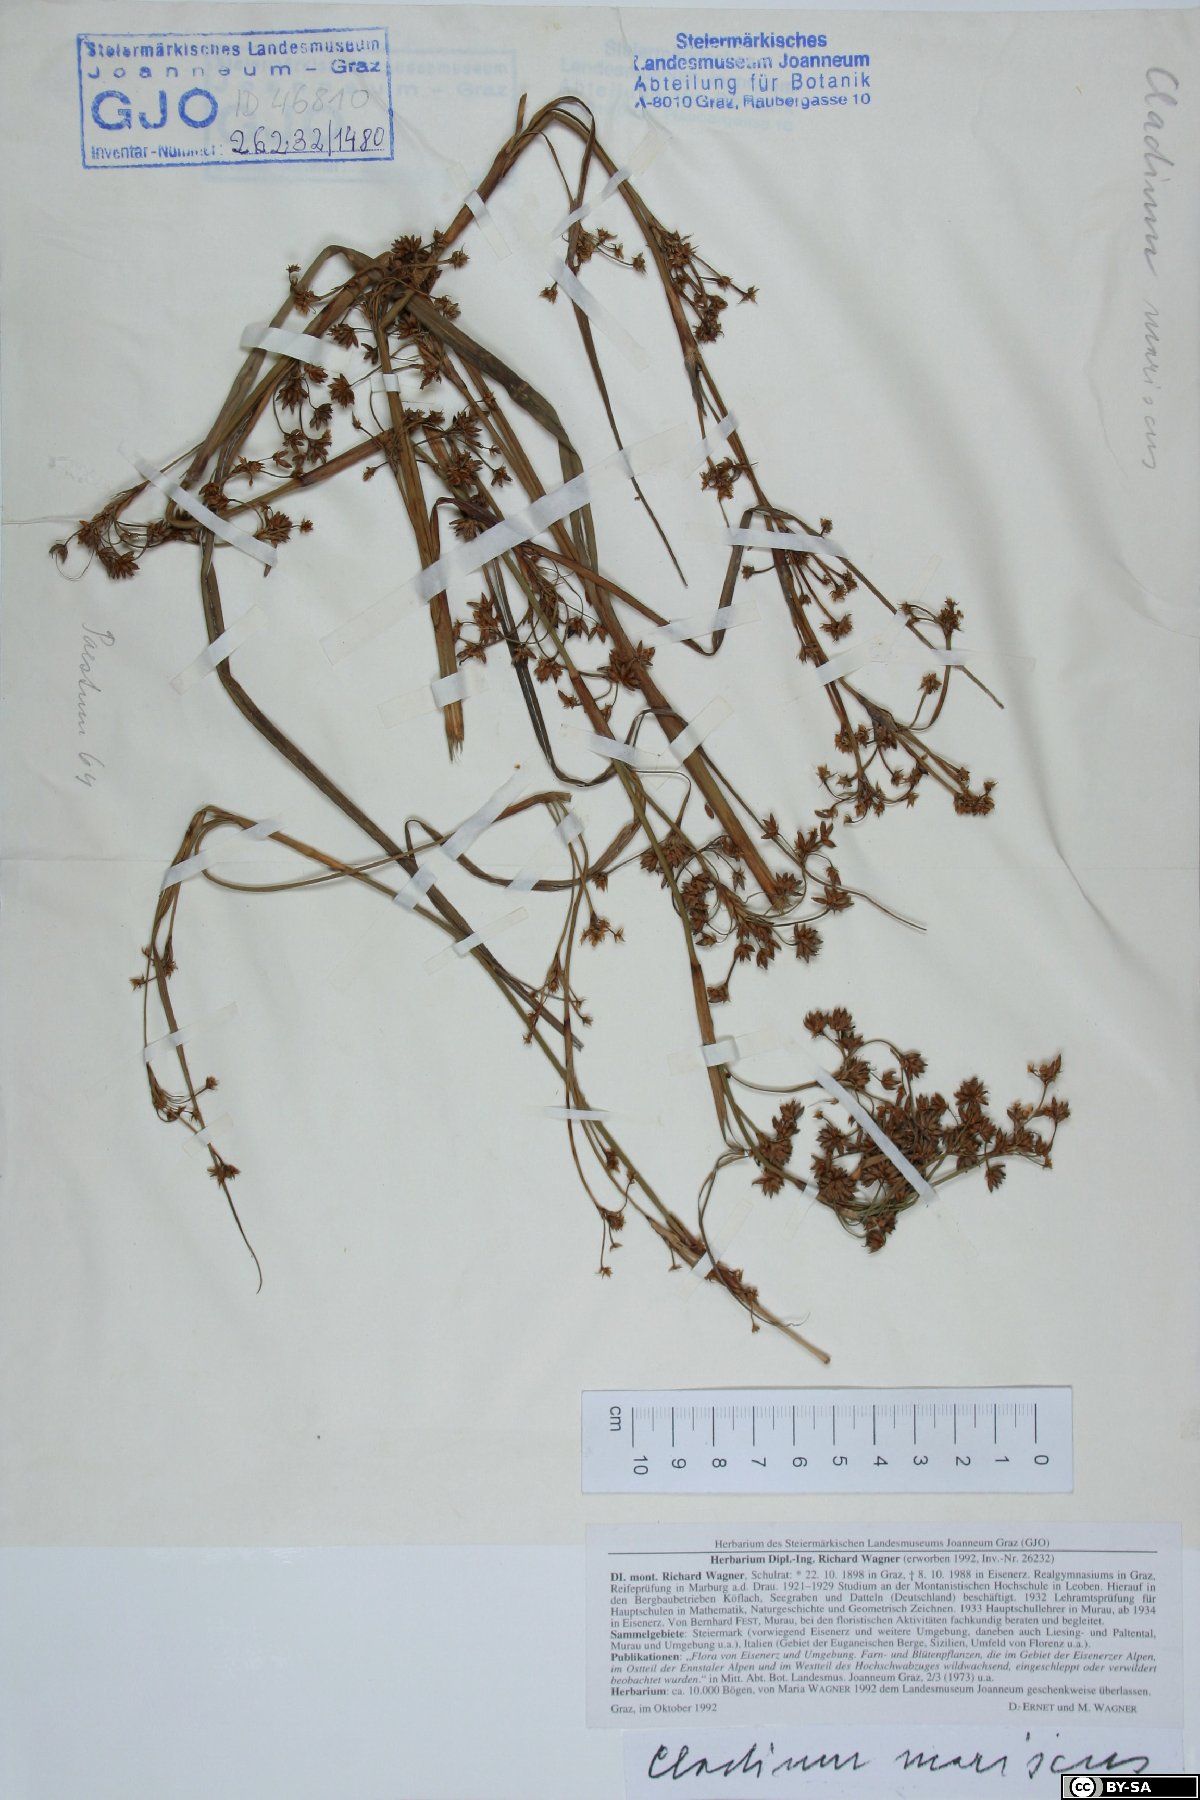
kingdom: Plantae
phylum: Tracheophyta
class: Liliopsida
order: Poales
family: Cyperaceae
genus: Cladium
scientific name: Cladium mariscus
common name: Great fen-sedge
